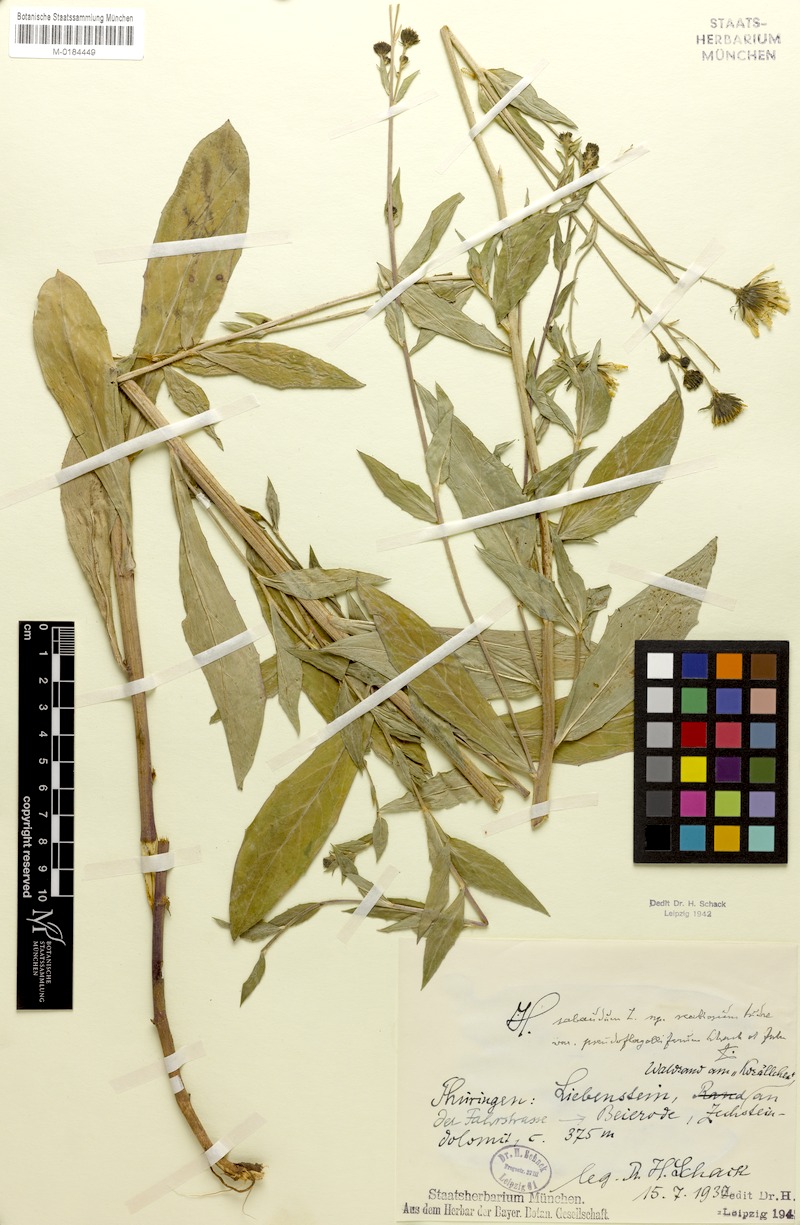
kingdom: Plantae
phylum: Tracheophyta
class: Magnoliopsida
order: Asterales
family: Asteraceae
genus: Hieracium
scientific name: Hieracium sabaudum
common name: New england hawkweed
